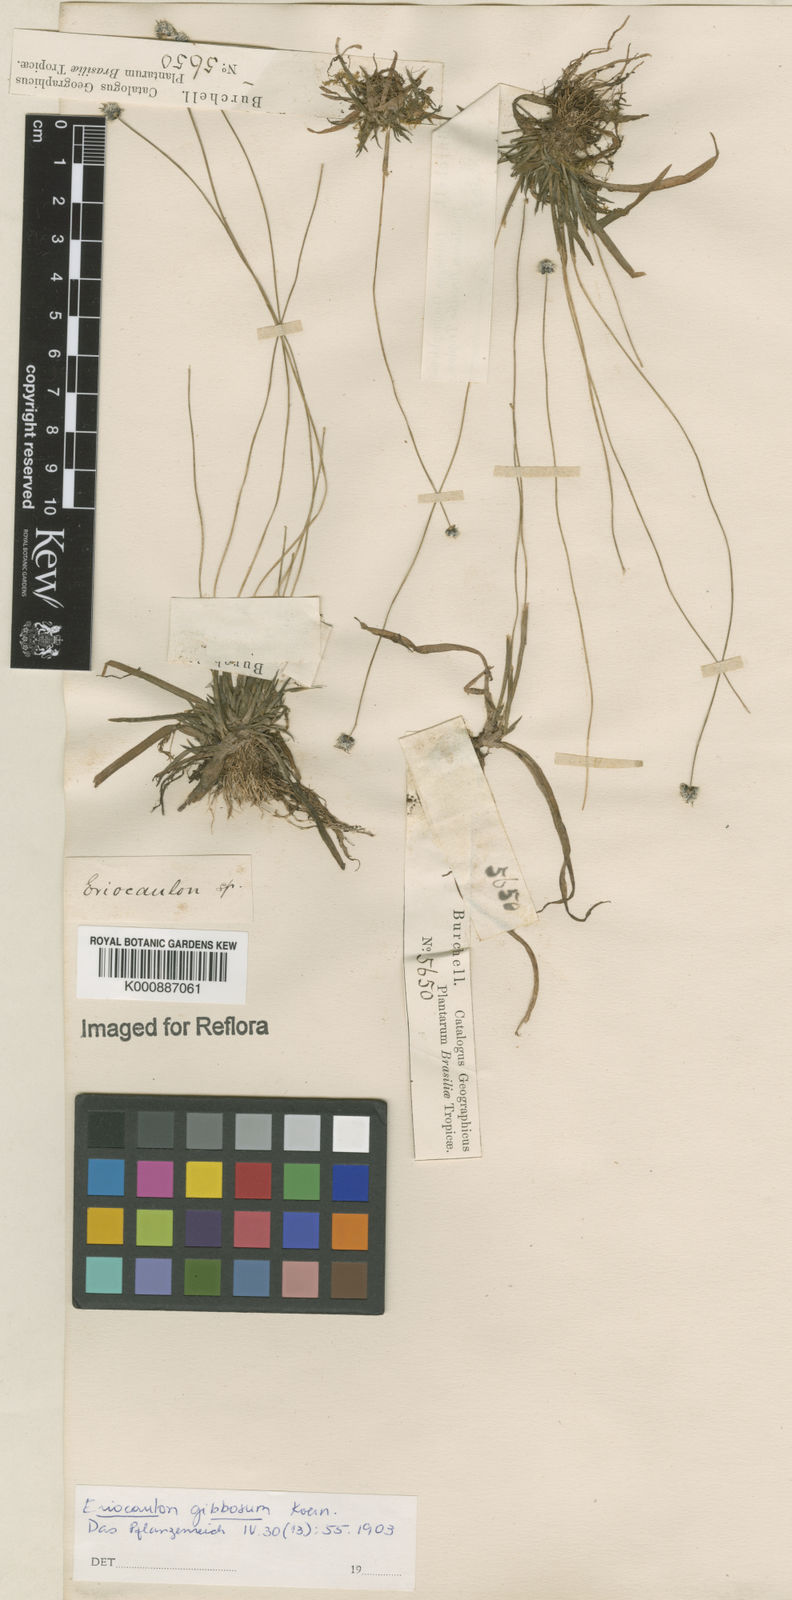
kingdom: Plantae
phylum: Tracheophyta
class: Liliopsida
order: Poales
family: Eriocaulaceae
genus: Eriocaulon
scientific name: Eriocaulon
